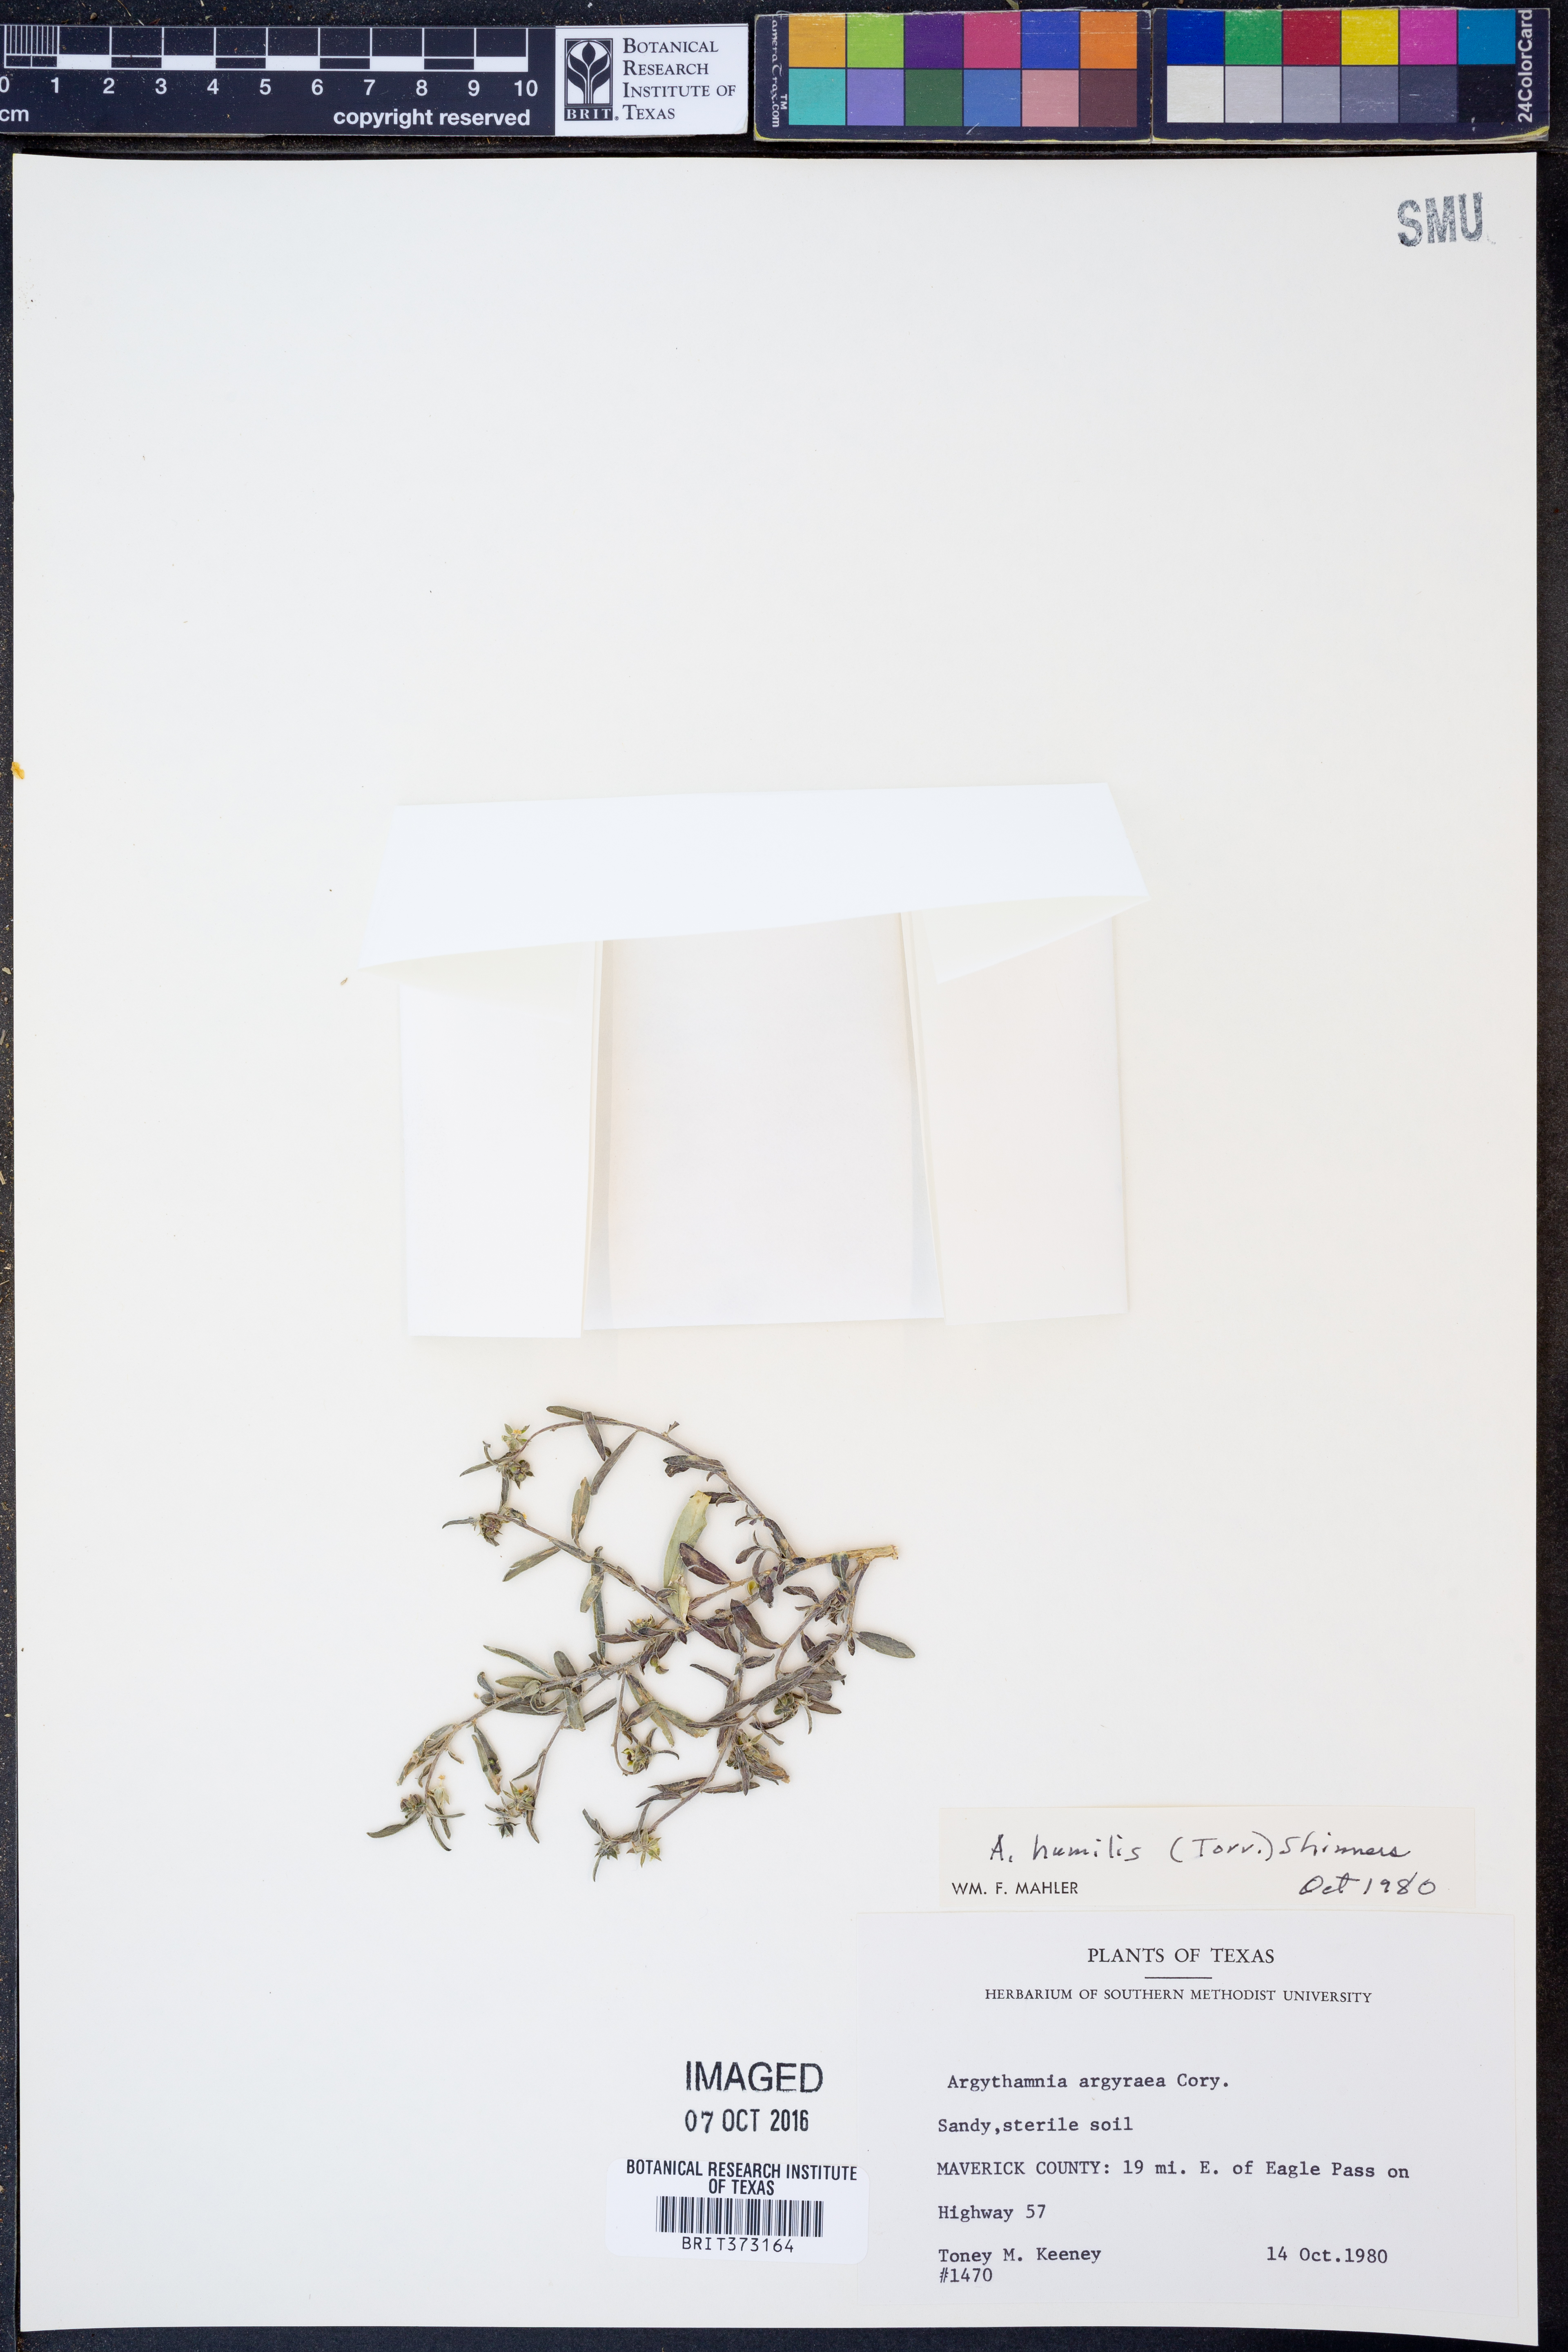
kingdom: Plantae
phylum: Tracheophyta
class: Magnoliopsida
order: Malpighiales
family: Euphorbiaceae
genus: Ditaxis
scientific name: Ditaxis humilis
